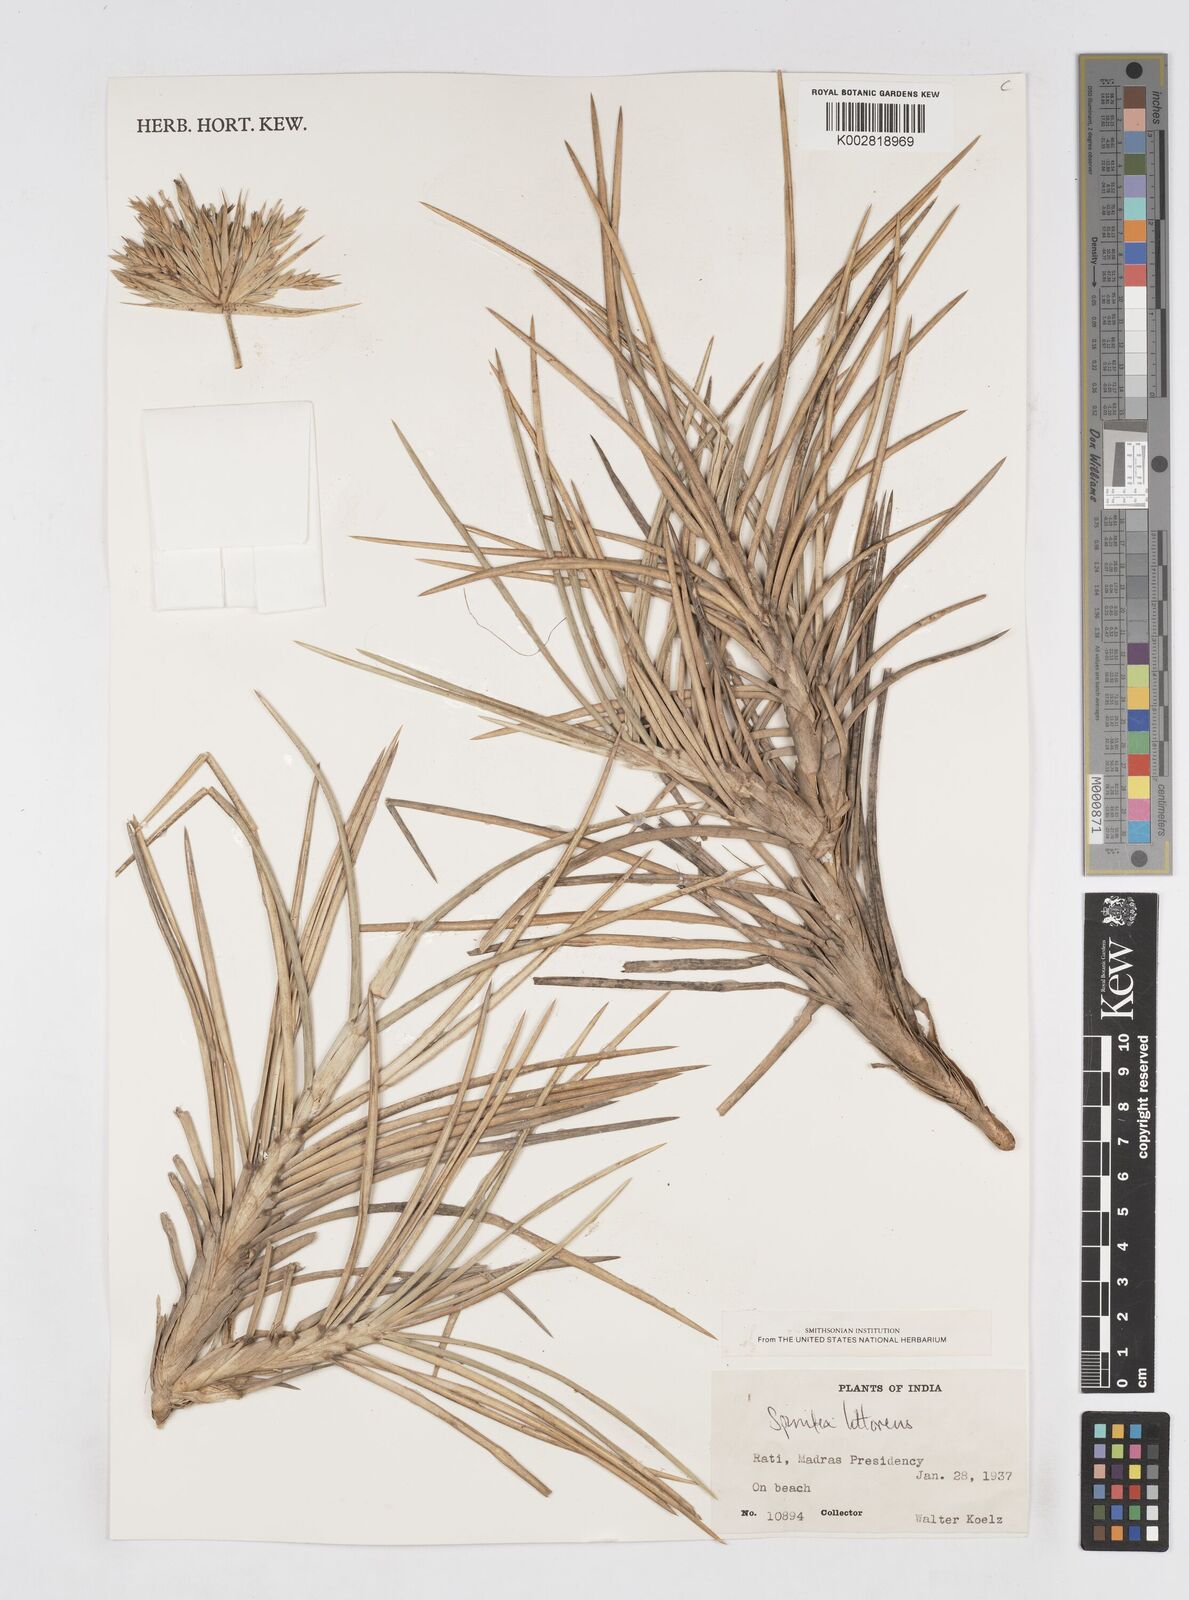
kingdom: Plantae
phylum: Tracheophyta
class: Liliopsida
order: Poales
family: Poaceae
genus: Spinifex
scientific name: Spinifex littoreus
